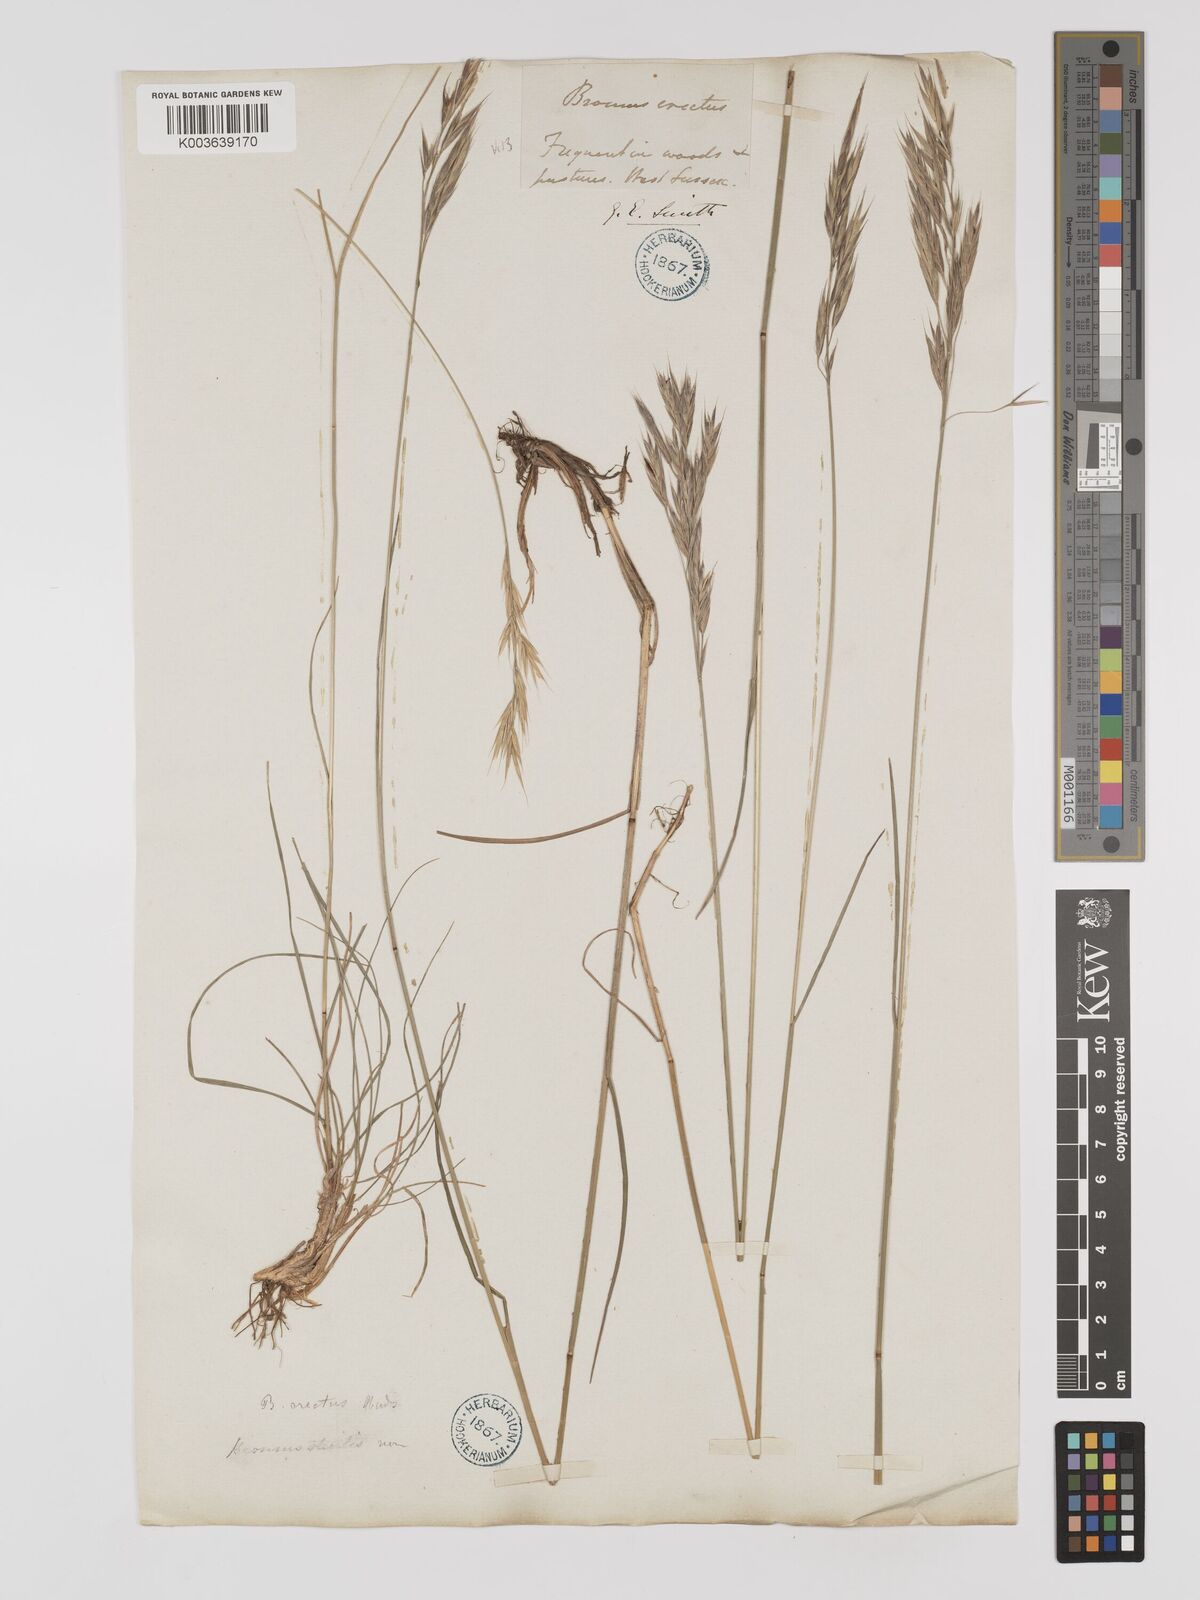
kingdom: Plantae
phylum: Tracheophyta
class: Liliopsida
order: Poales
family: Poaceae
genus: Bromus
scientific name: Bromus erectus
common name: Erect brome
